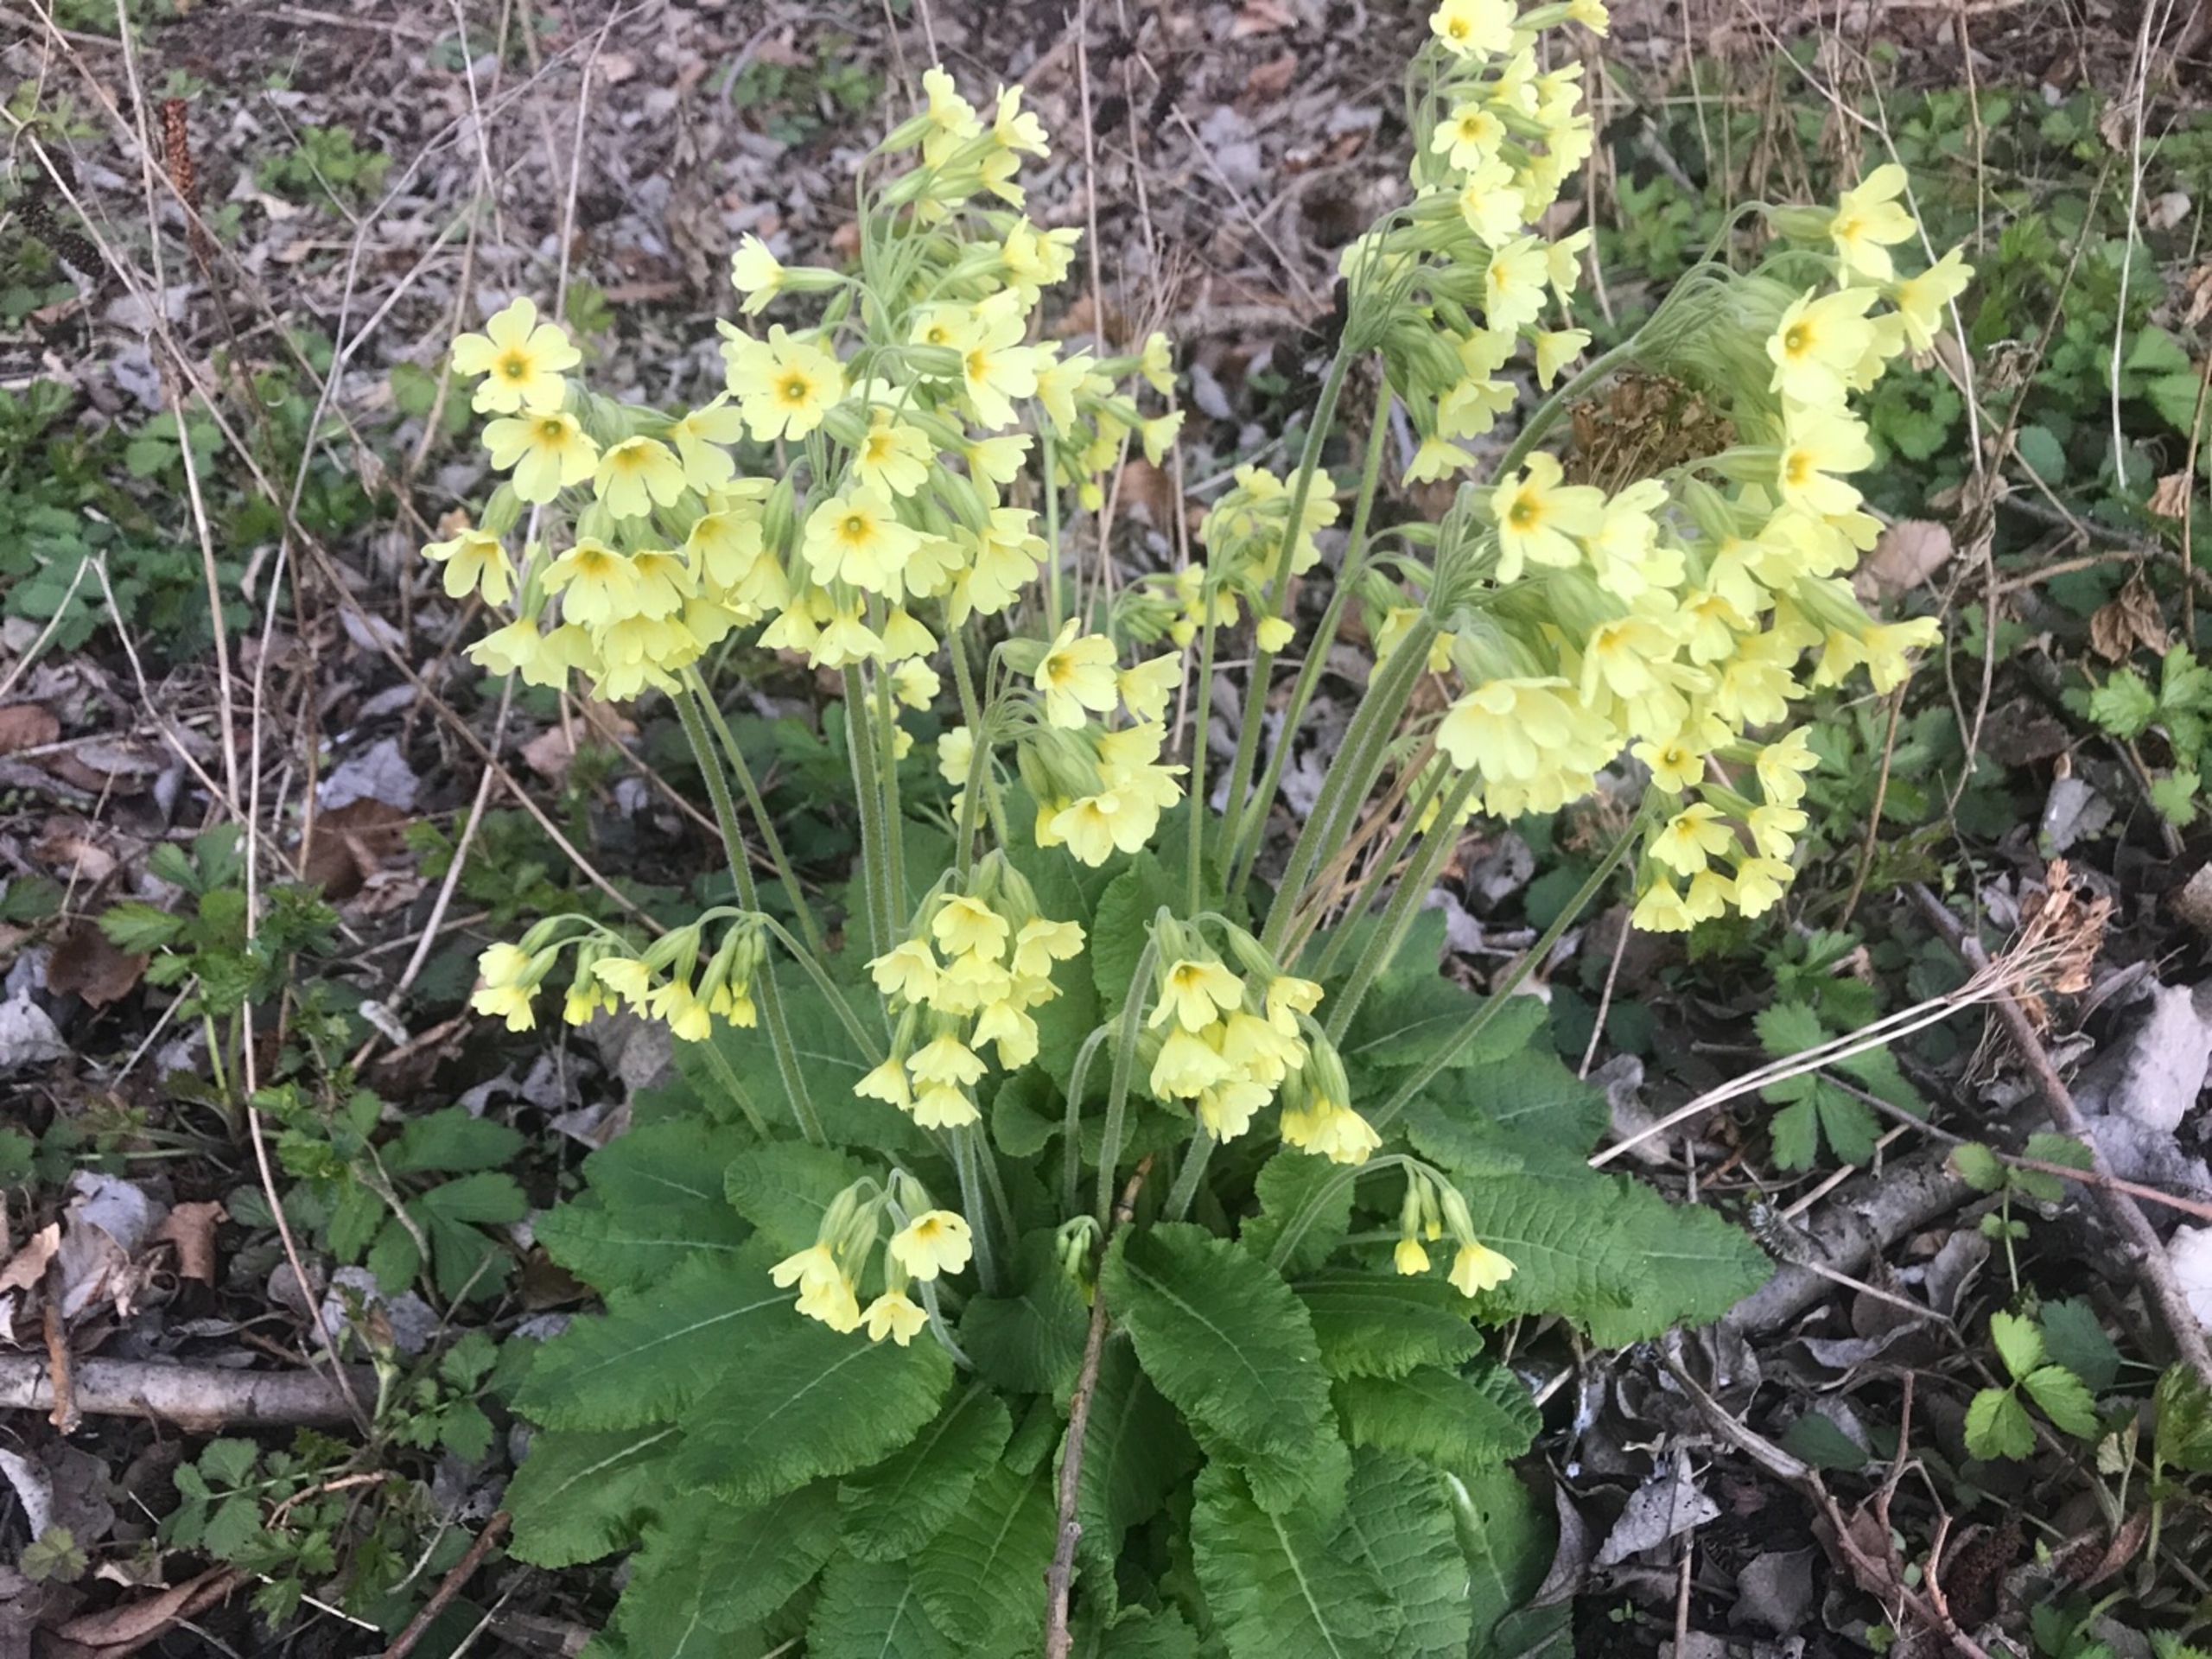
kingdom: Plantae
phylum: Tracheophyta
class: Magnoliopsida
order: Ericales
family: Primulaceae
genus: Primula
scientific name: Primula elatior
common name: Fladkravet kodriver
